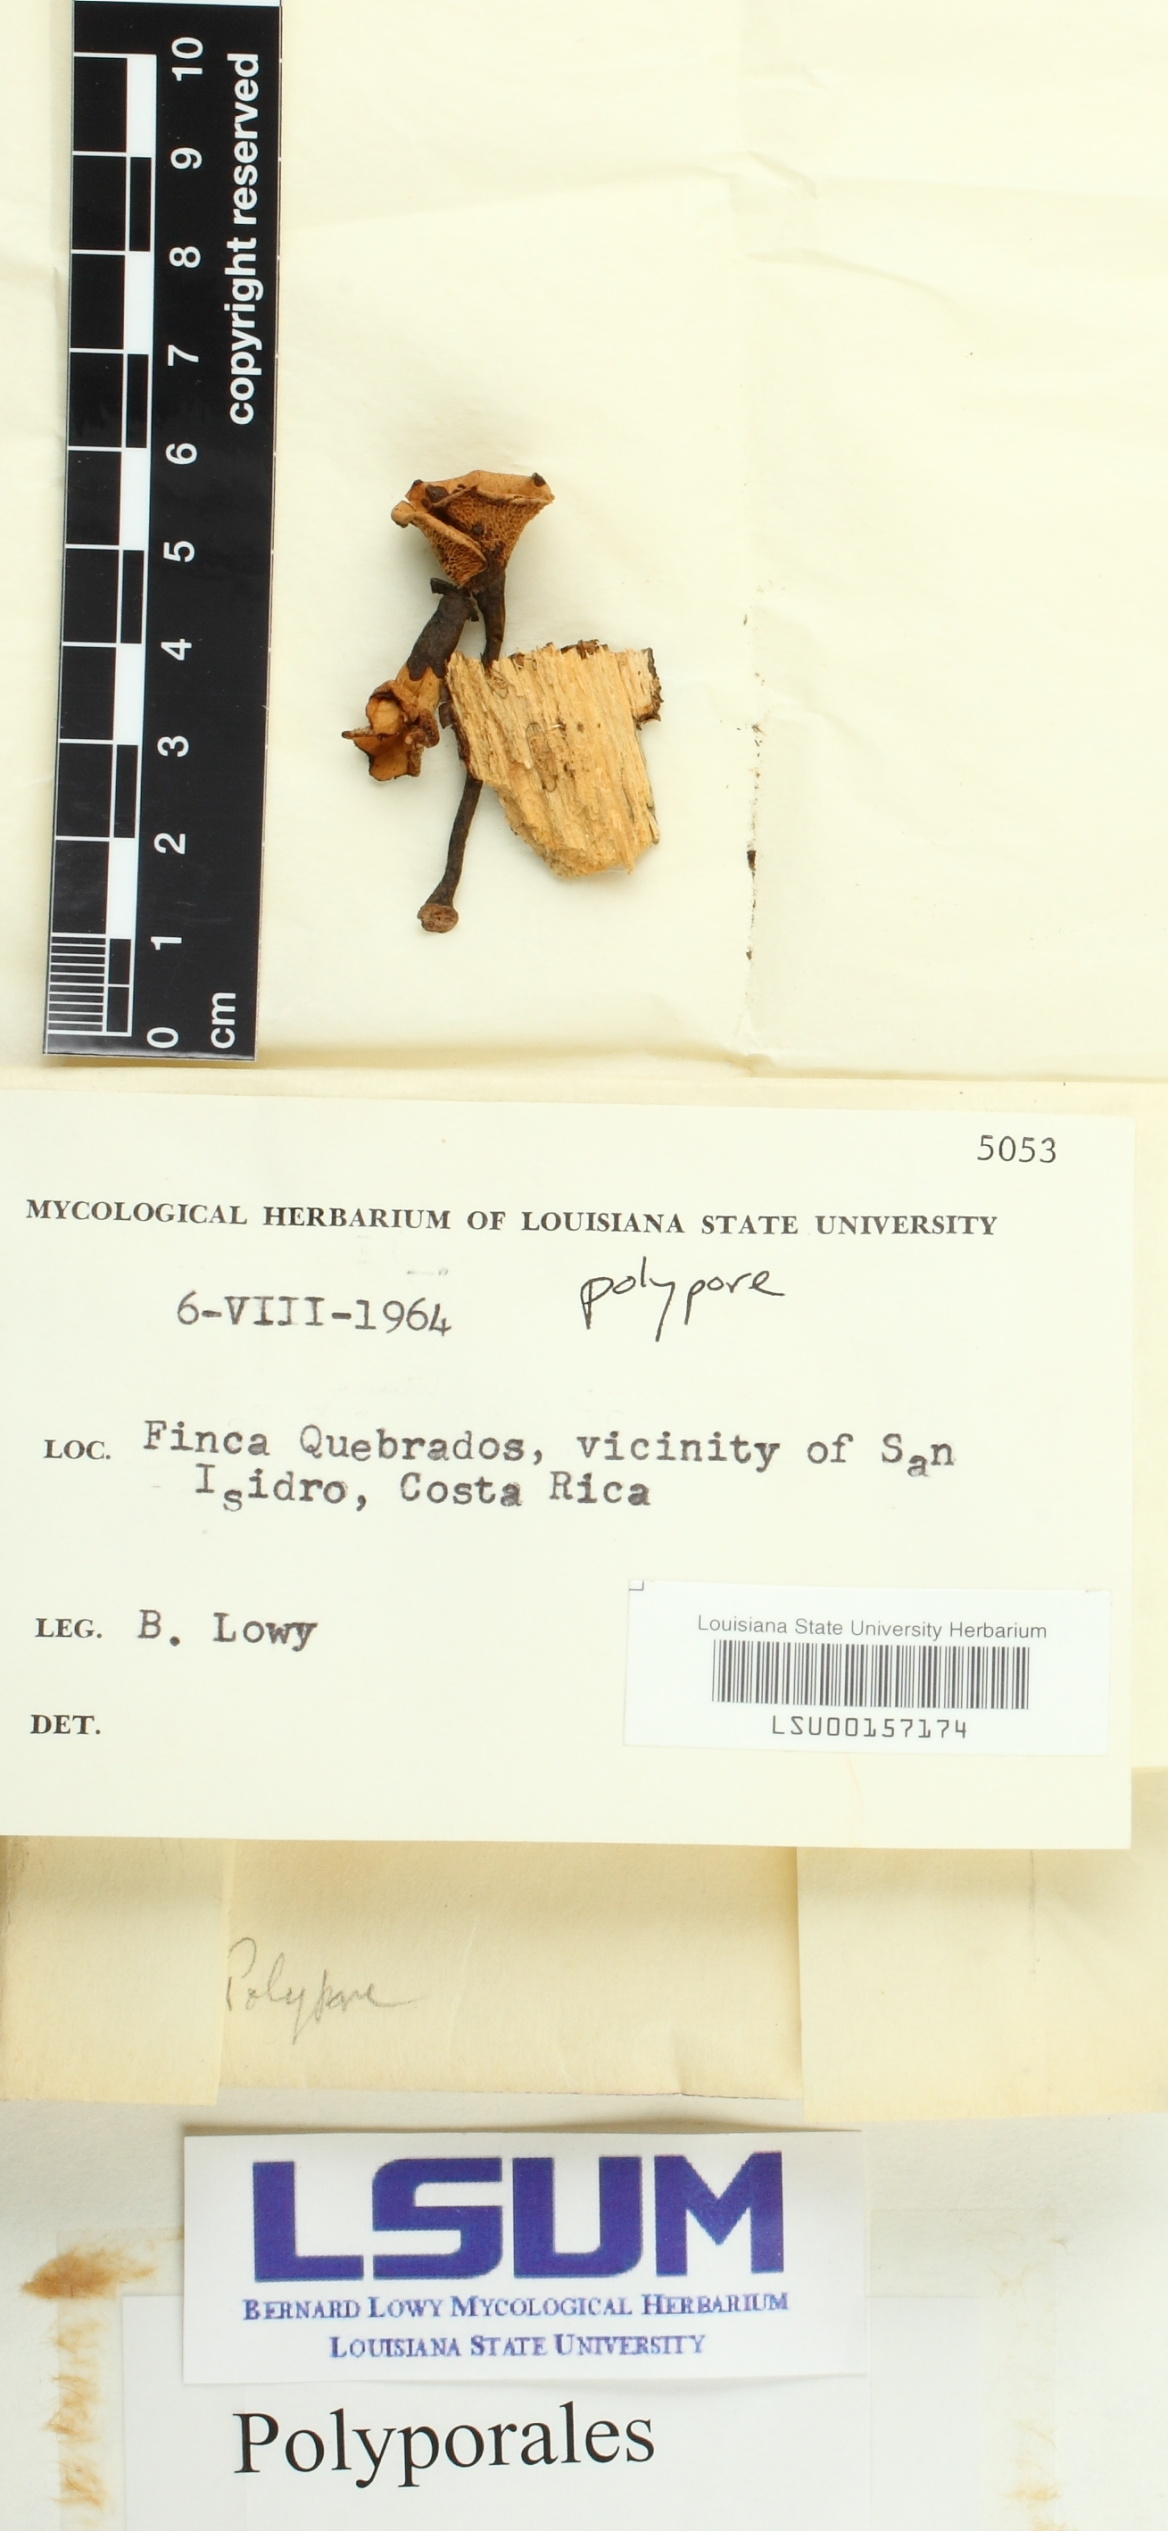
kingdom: Fungi
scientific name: Fungi
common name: Fungi
